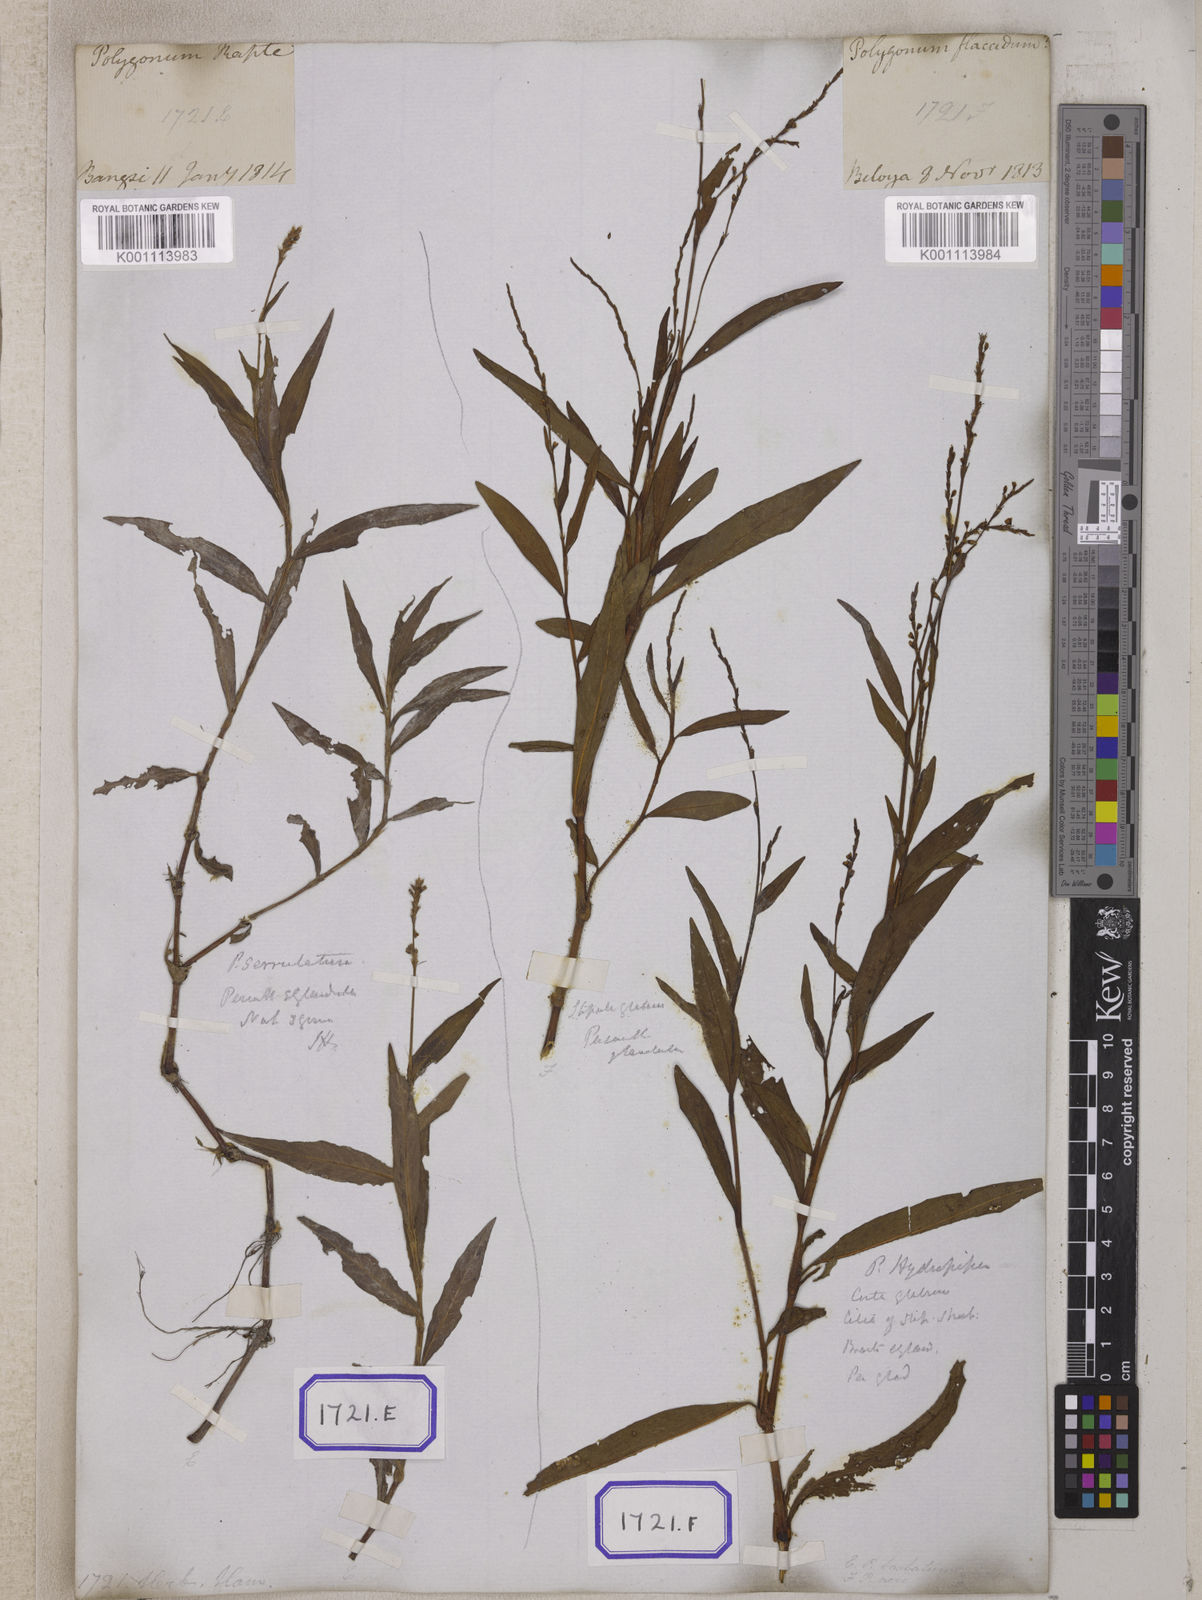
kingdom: Plantae
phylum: Tracheophyta
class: Magnoliopsida
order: Caryophyllales
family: Polygonaceae
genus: Persicaria
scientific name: Persicaria hydropiperoides
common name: Swamp smartweed
